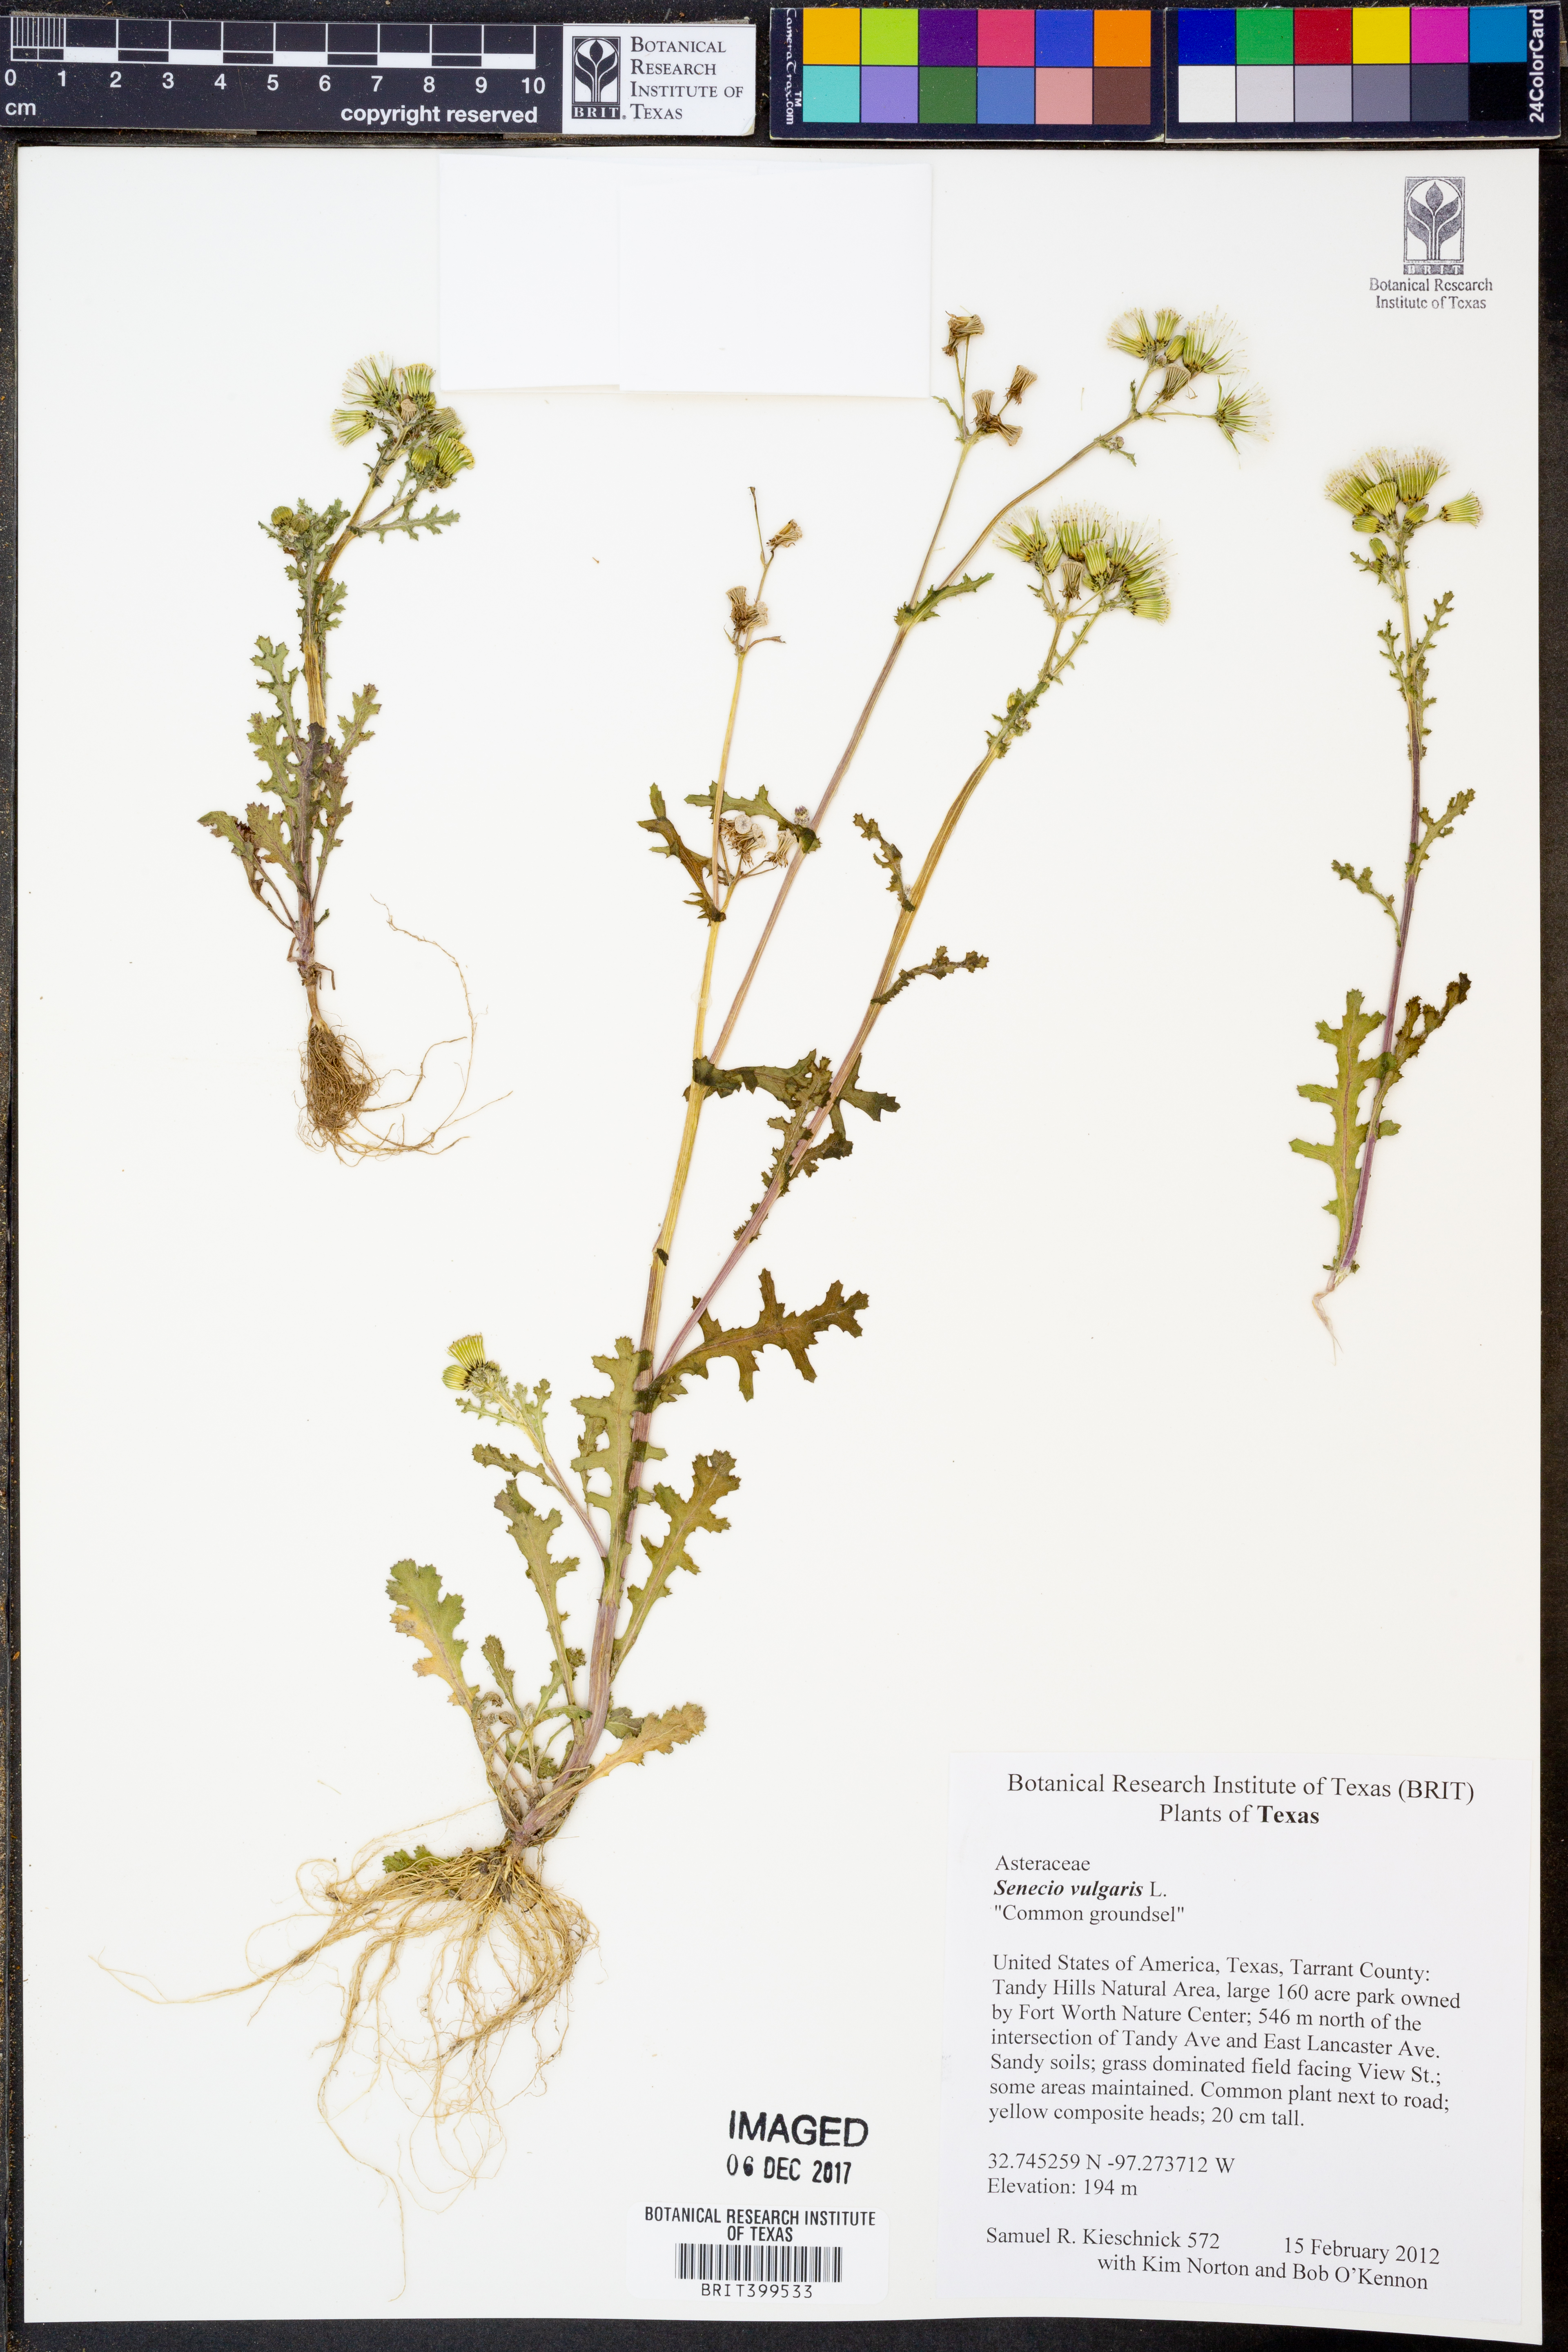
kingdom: Plantae
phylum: Tracheophyta
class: Magnoliopsida
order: Asterales
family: Asteraceae
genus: Senecio
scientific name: Senecio vulgaris
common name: Old-man-in-the-spring
